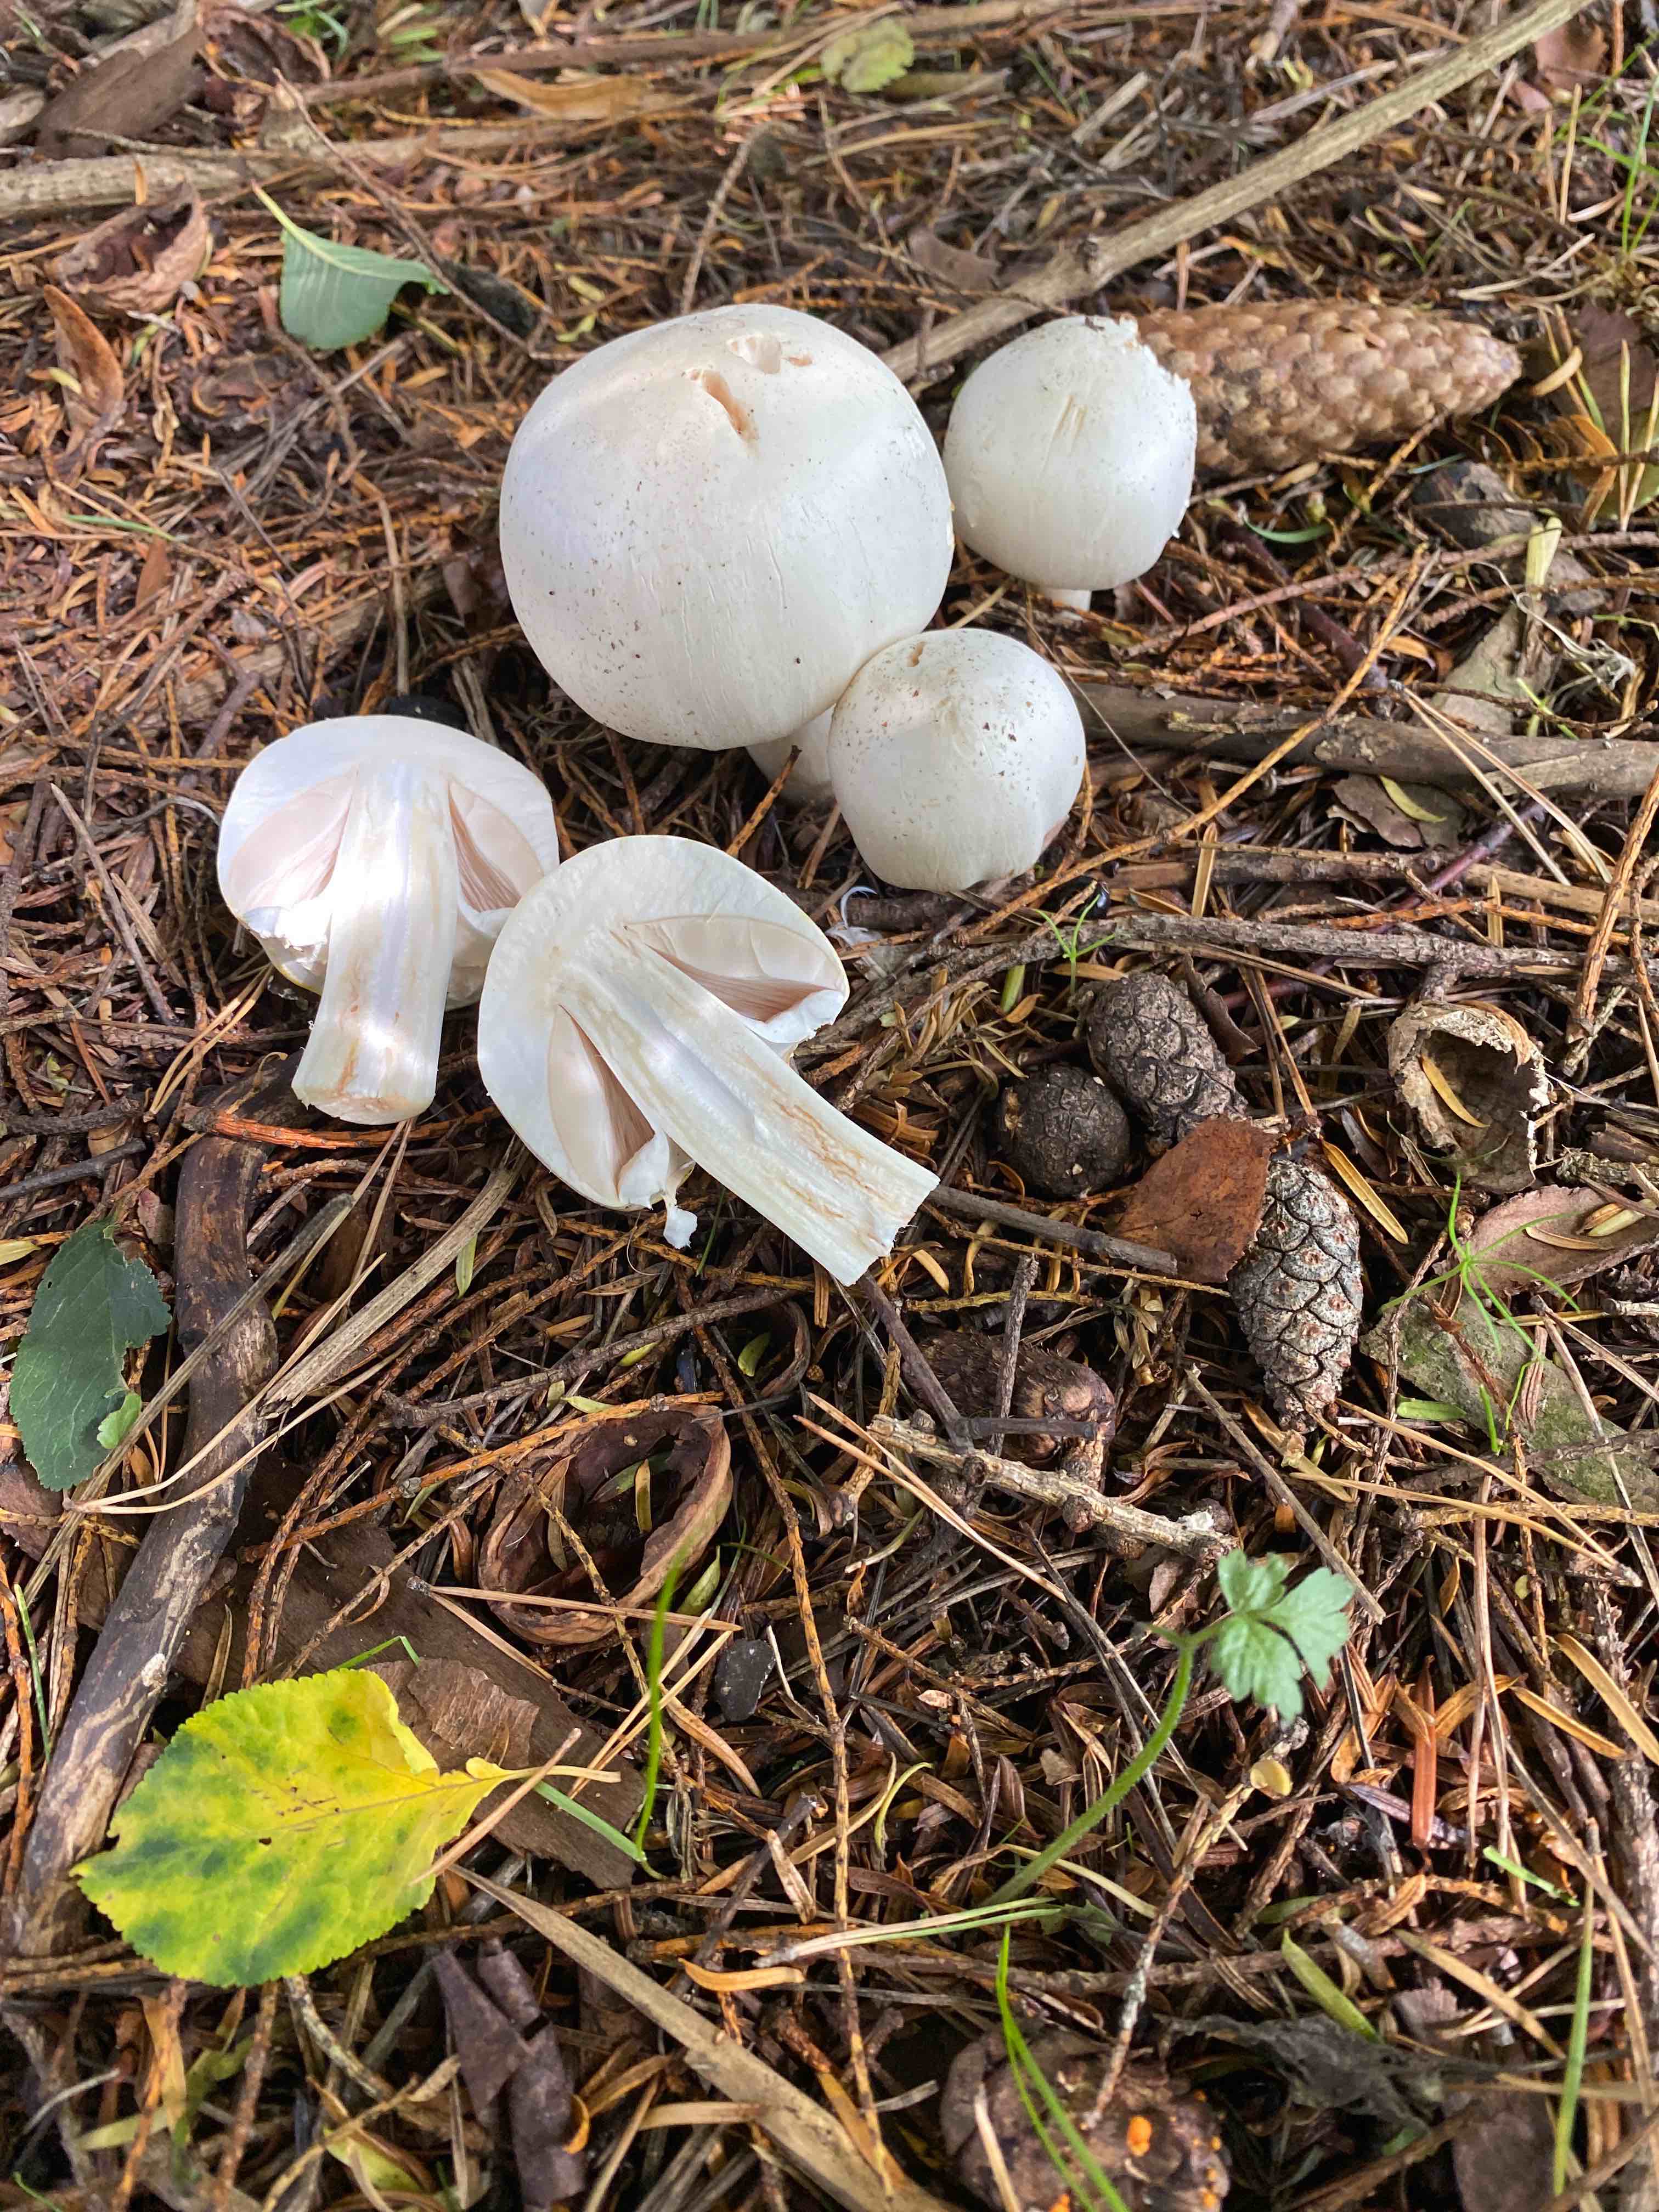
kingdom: Fungi
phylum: Basidiomycota
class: Agaricomycetes
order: Agaricales
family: Agaricaceae
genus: Agaricus
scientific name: Agaricus
